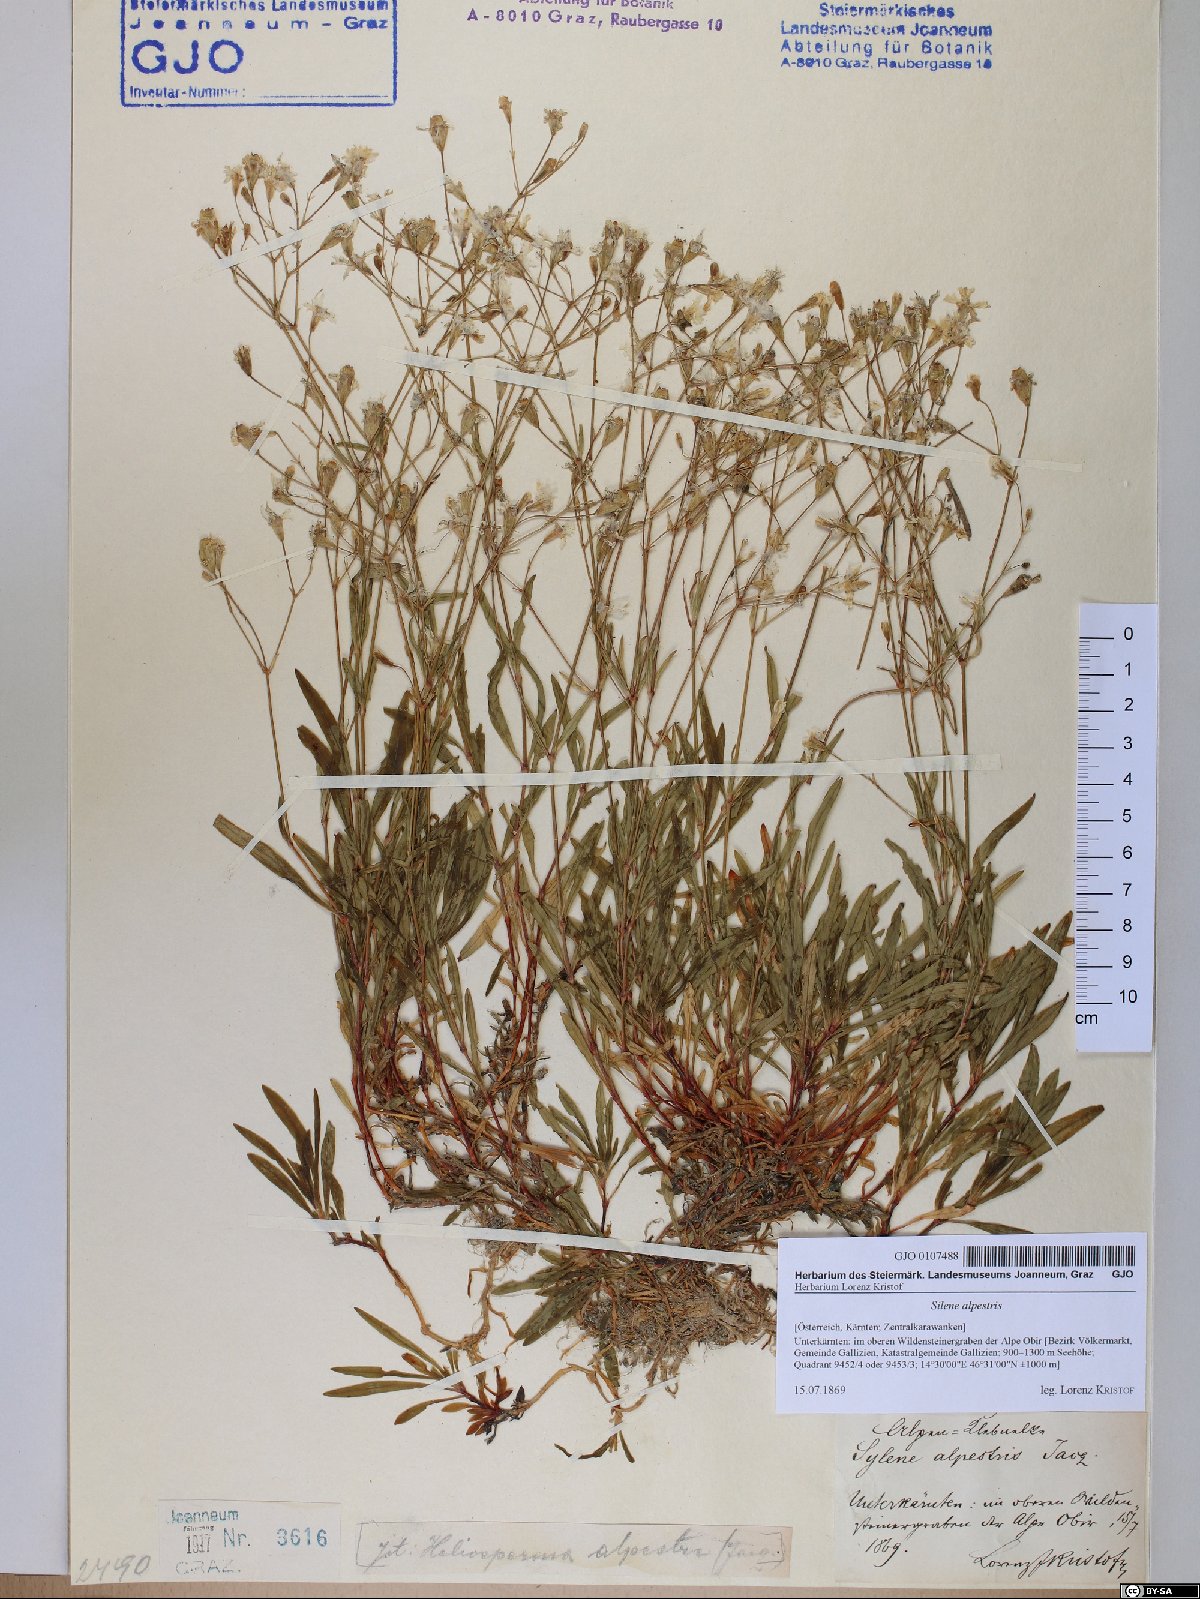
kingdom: Plantae
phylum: Tracheophyta
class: Magnoliopsida
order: Caryophyllales
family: Caryophyllaceae
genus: Heliosperma
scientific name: Heliosperma alpestre
